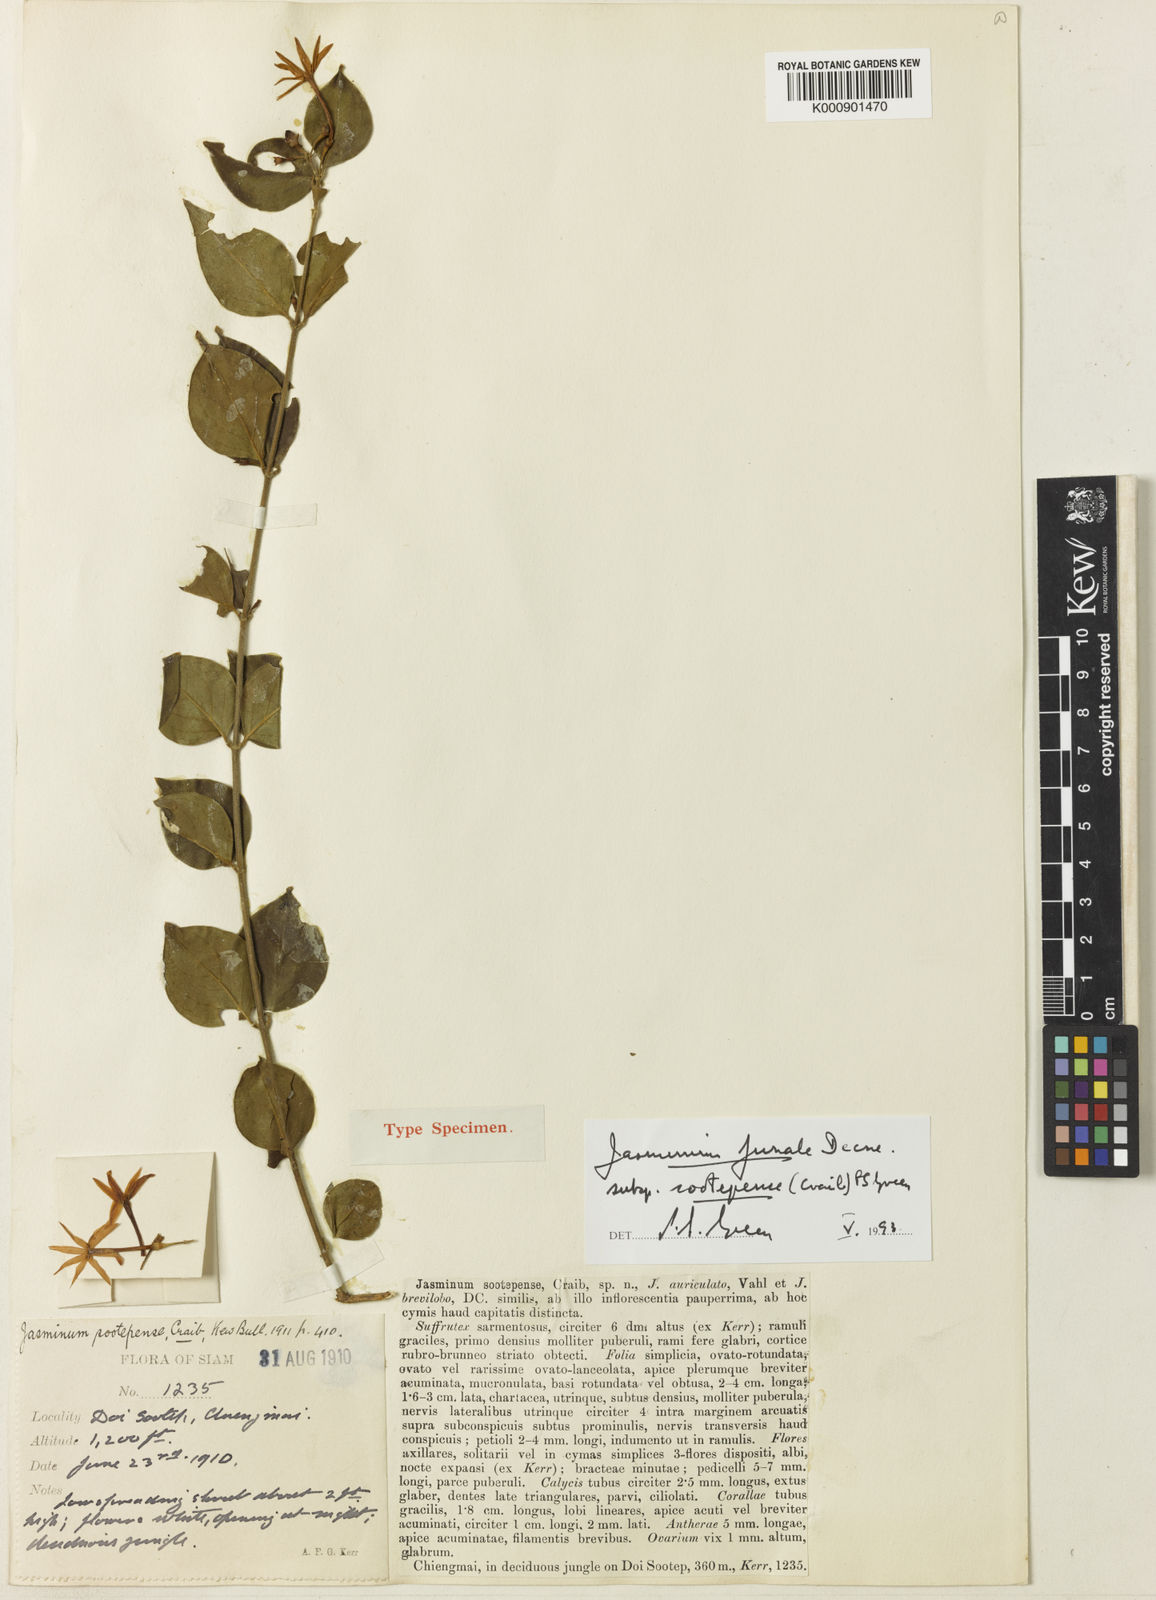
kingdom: Plantae
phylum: Tracheophyta
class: Magnoliopsida
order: Lamiales
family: Oleaceae
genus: Jasminum
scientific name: Jasminum simplicifolium
